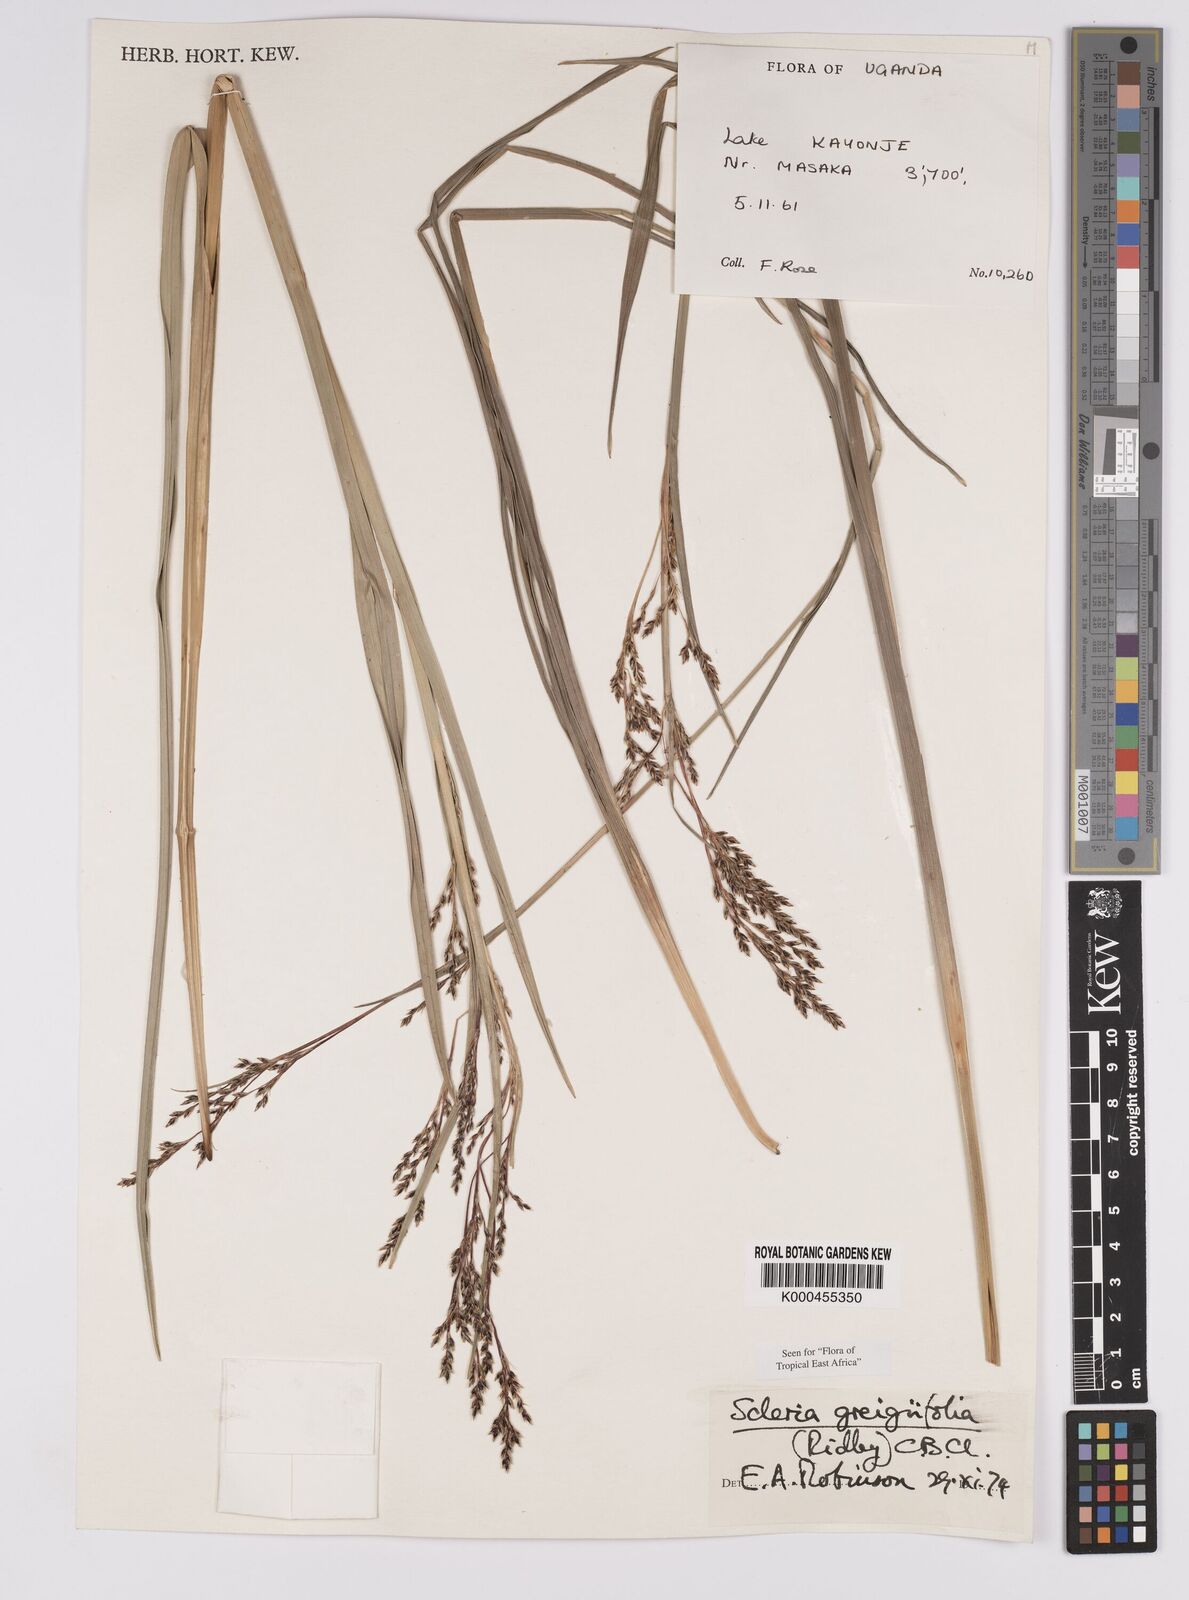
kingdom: Plantae
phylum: Tracheophyta
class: Liliopsida
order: Poales
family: Cyperaceae
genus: Scleria
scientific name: Scleria greigiifolia
